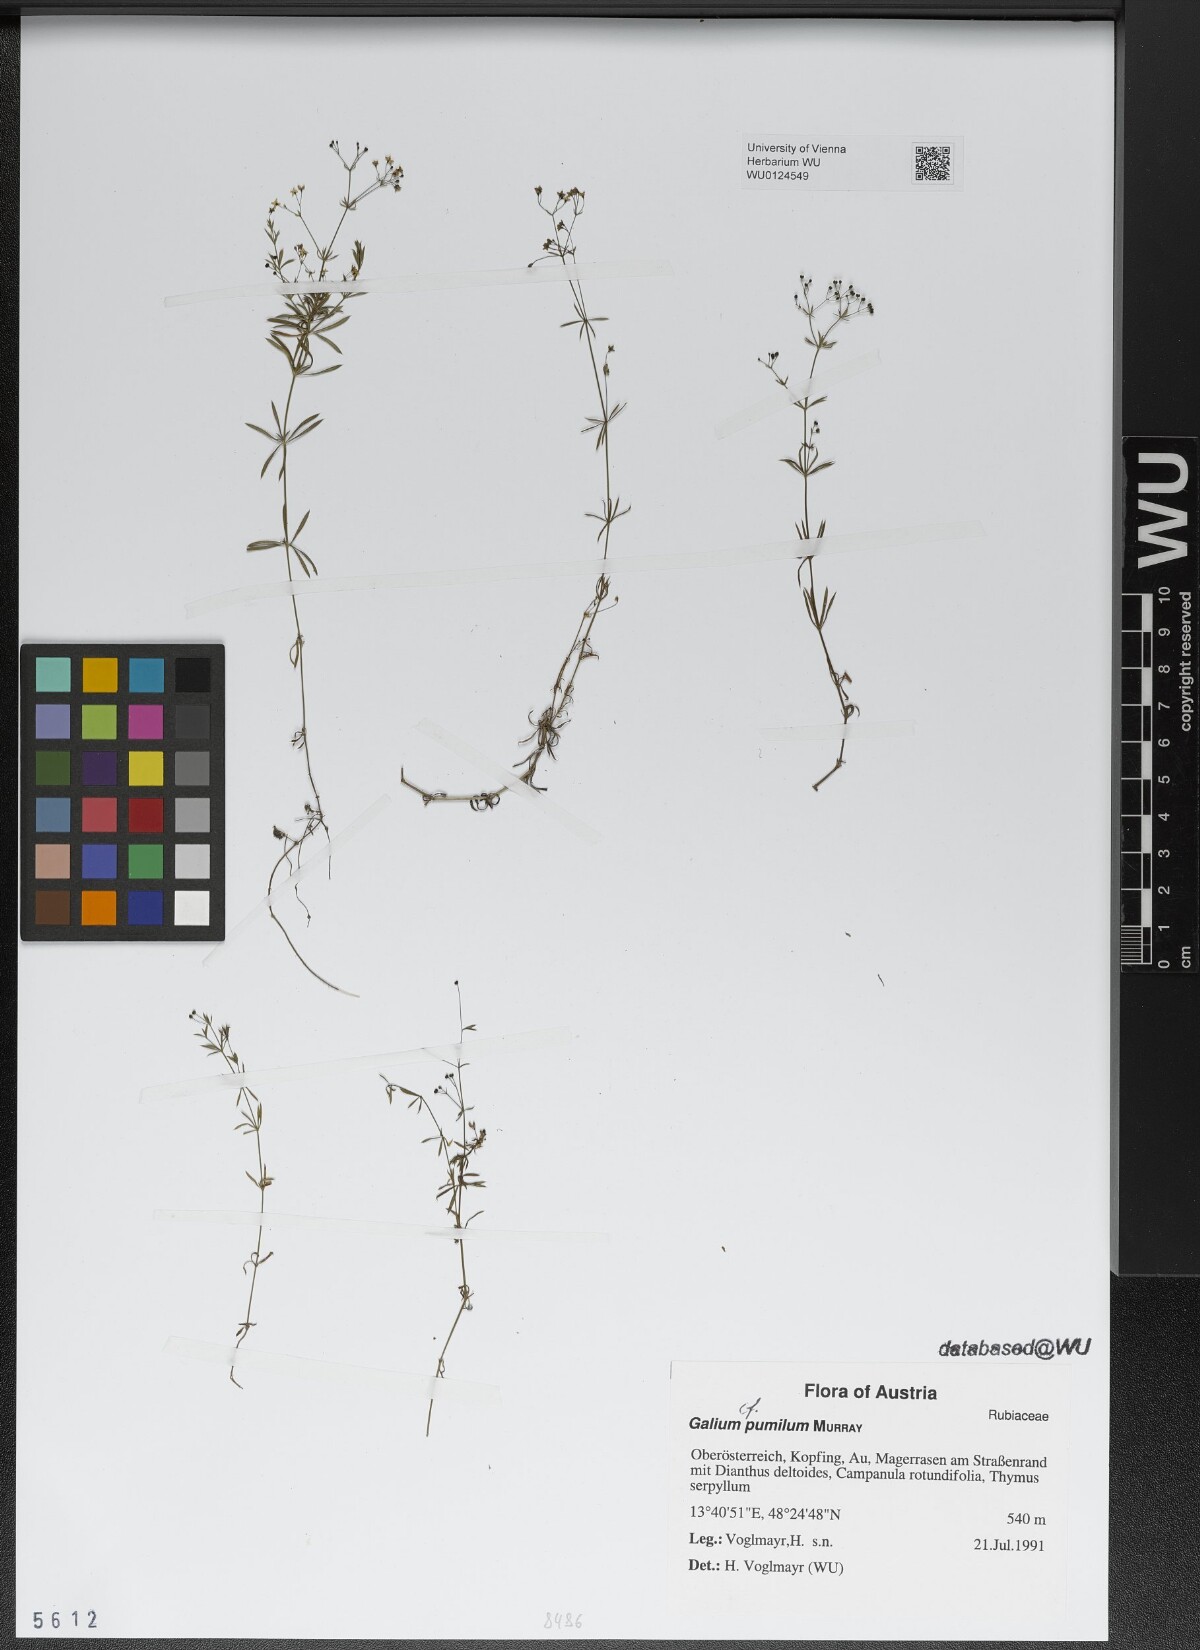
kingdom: Plantae
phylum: Tracheophyta
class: Magnoliopsida
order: Gentianales
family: Rubiaceae
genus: Galium
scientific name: Galium pumilum
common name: Slender bedstraw
